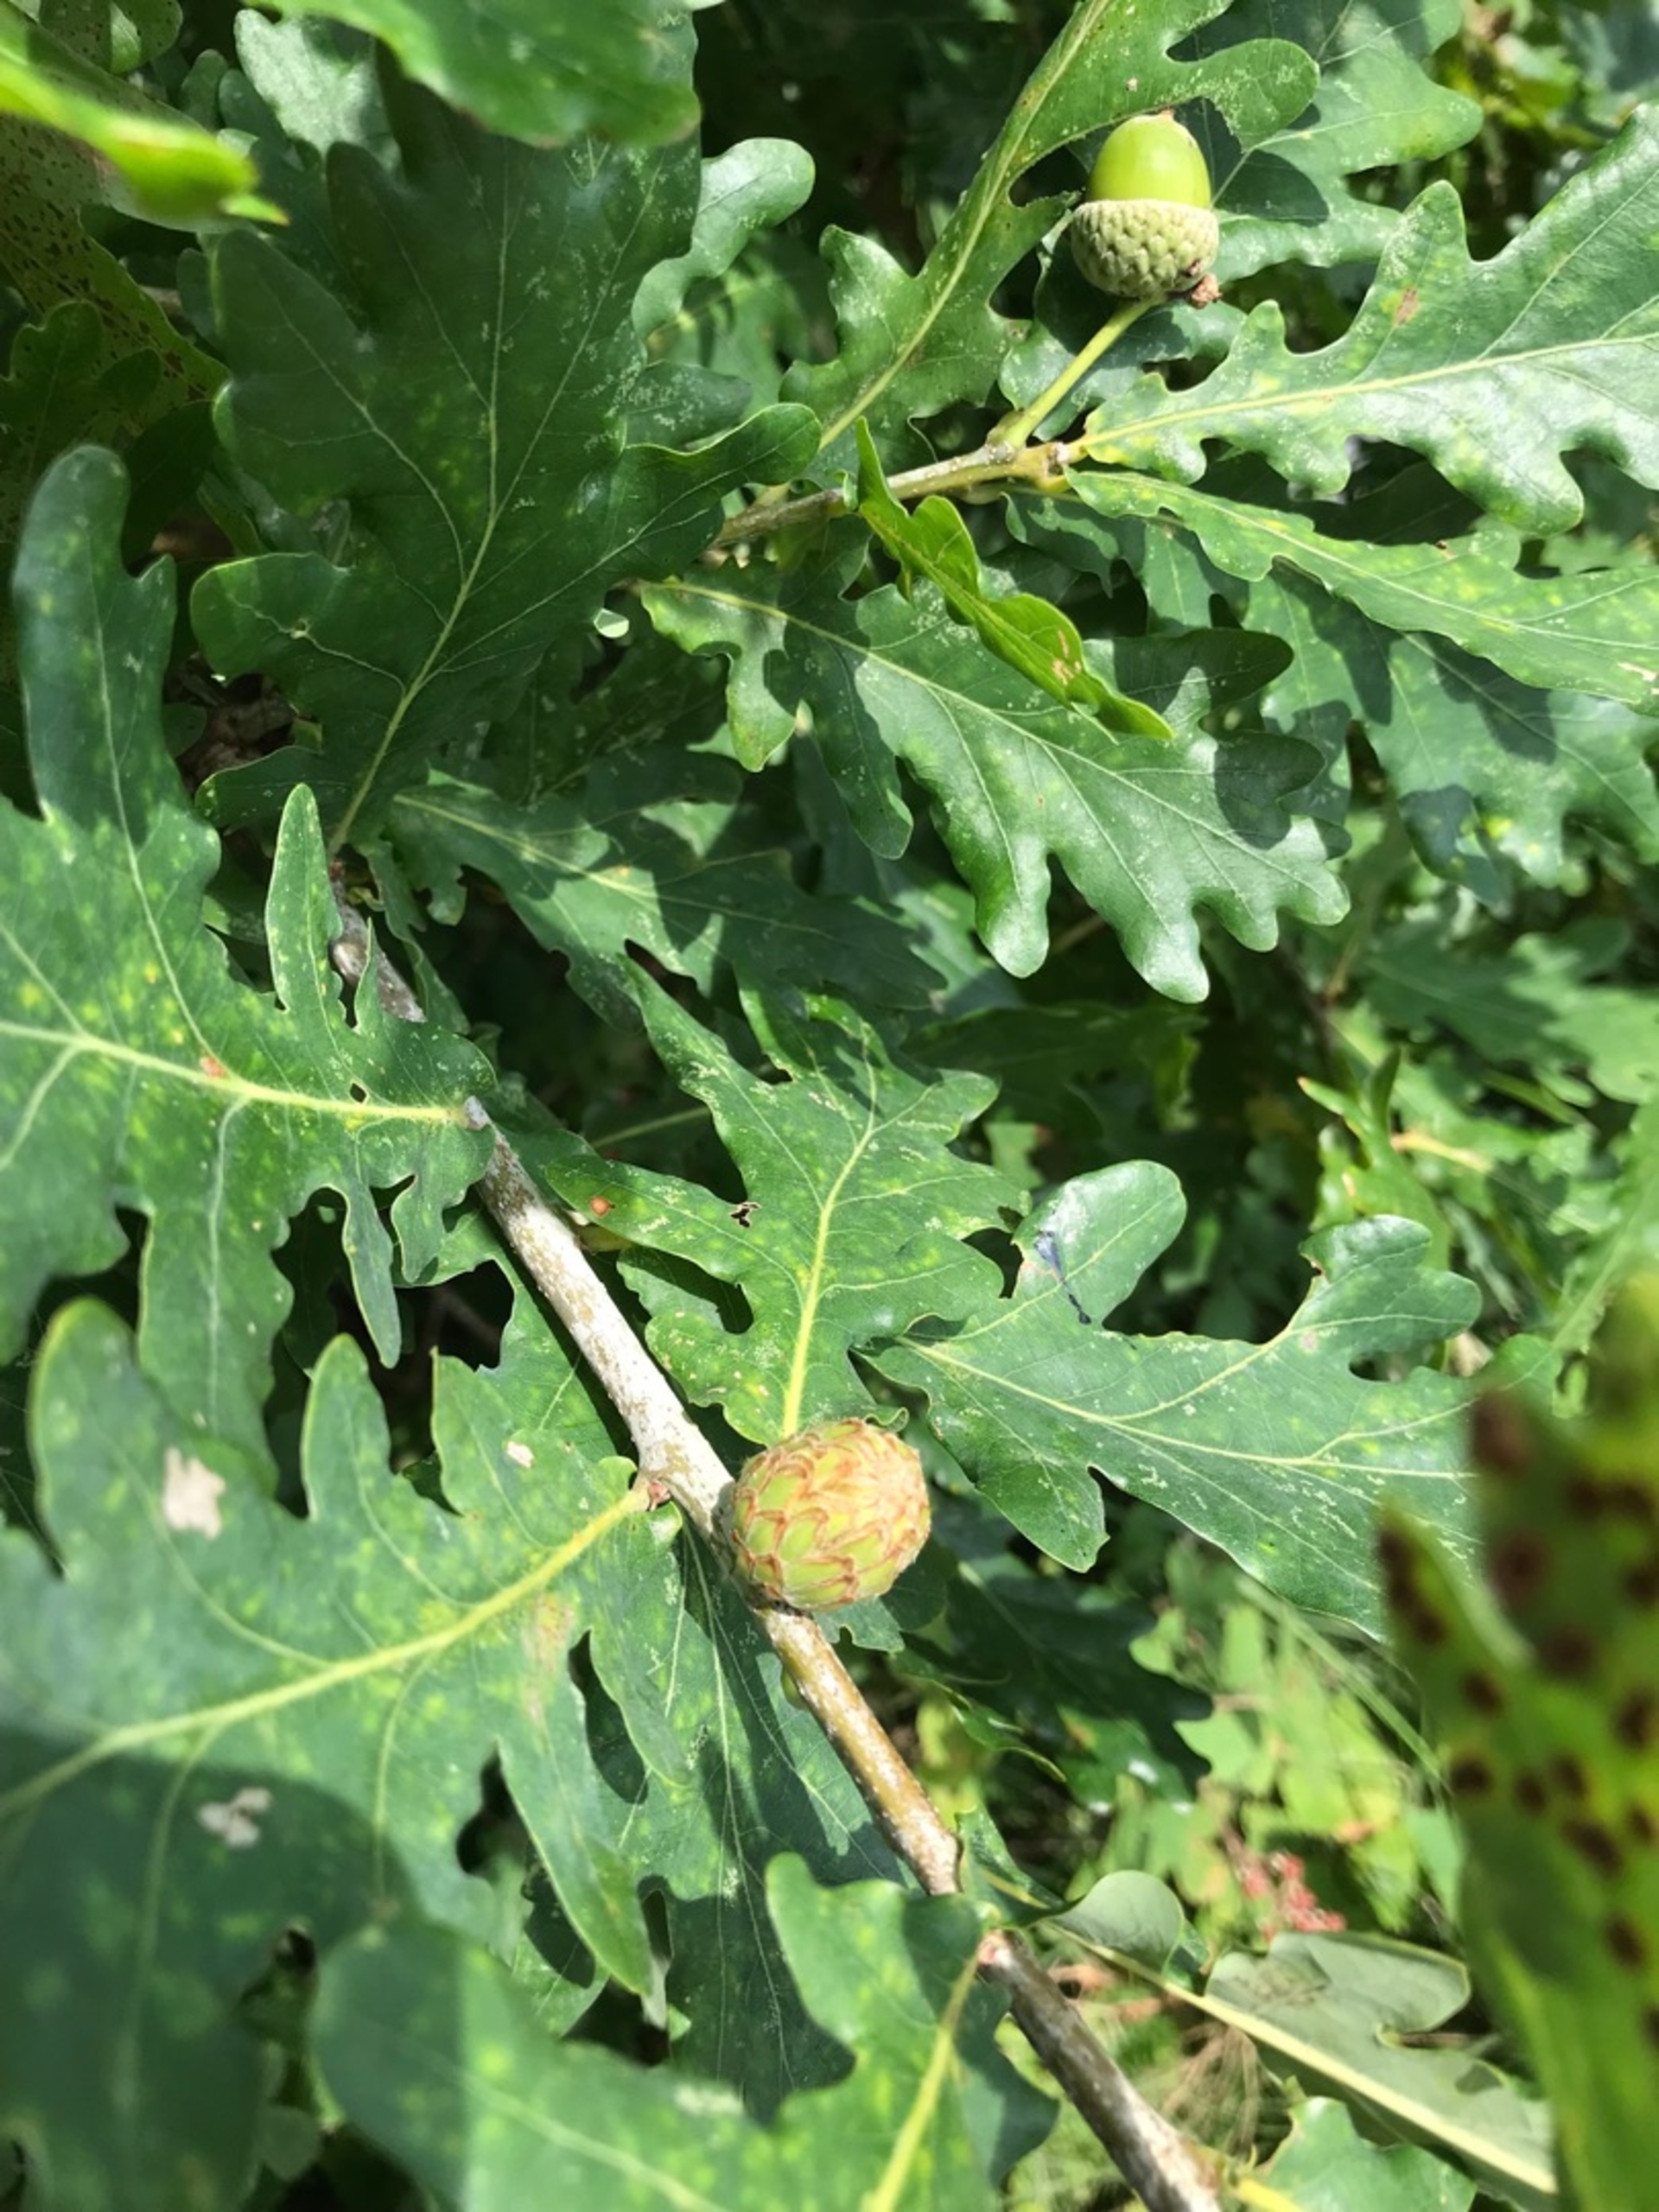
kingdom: Animalia
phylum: Arthropoda
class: Insecta
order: Hymenoptera
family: Cynipidae
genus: Andricus
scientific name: Andricus foecundatrix
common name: Artiskokgalhveps
